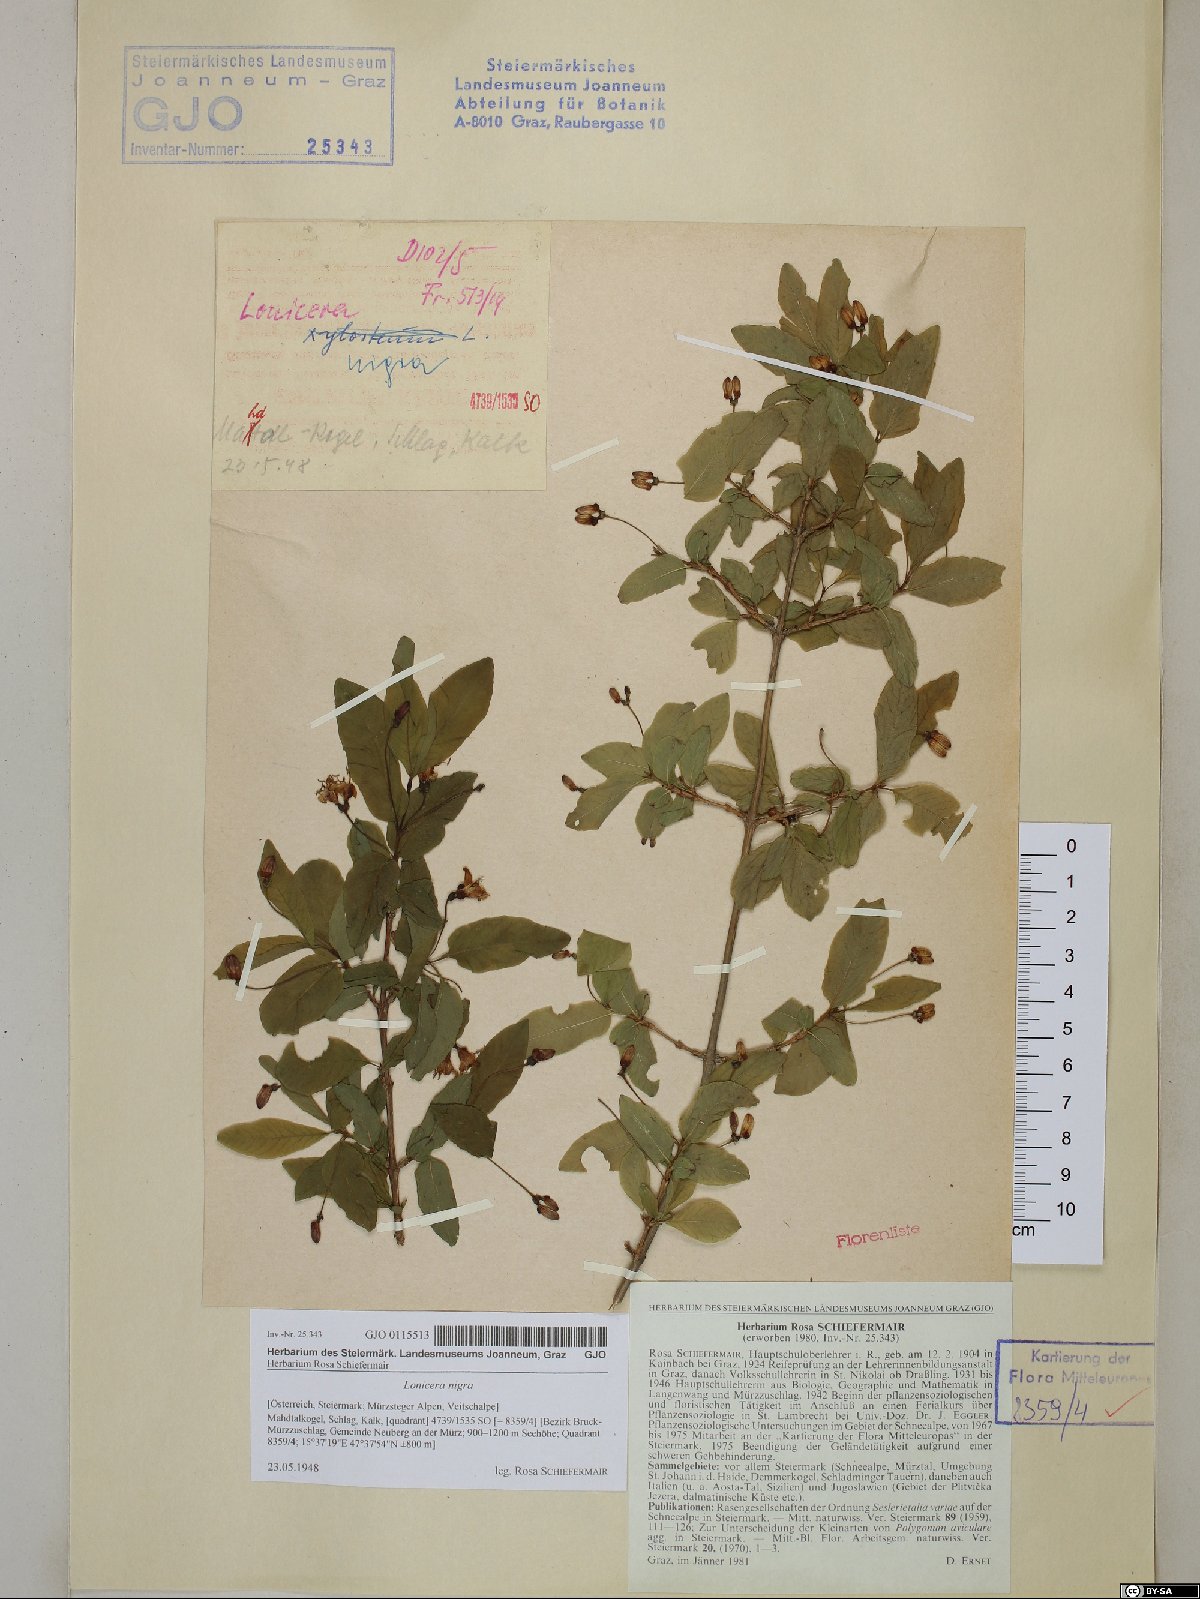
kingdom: Plantae
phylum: Tracheophyta
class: Magnoliopsida
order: Dipsacales
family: Caprifoliaceae
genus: Lonicera
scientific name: Lonicera nigra
